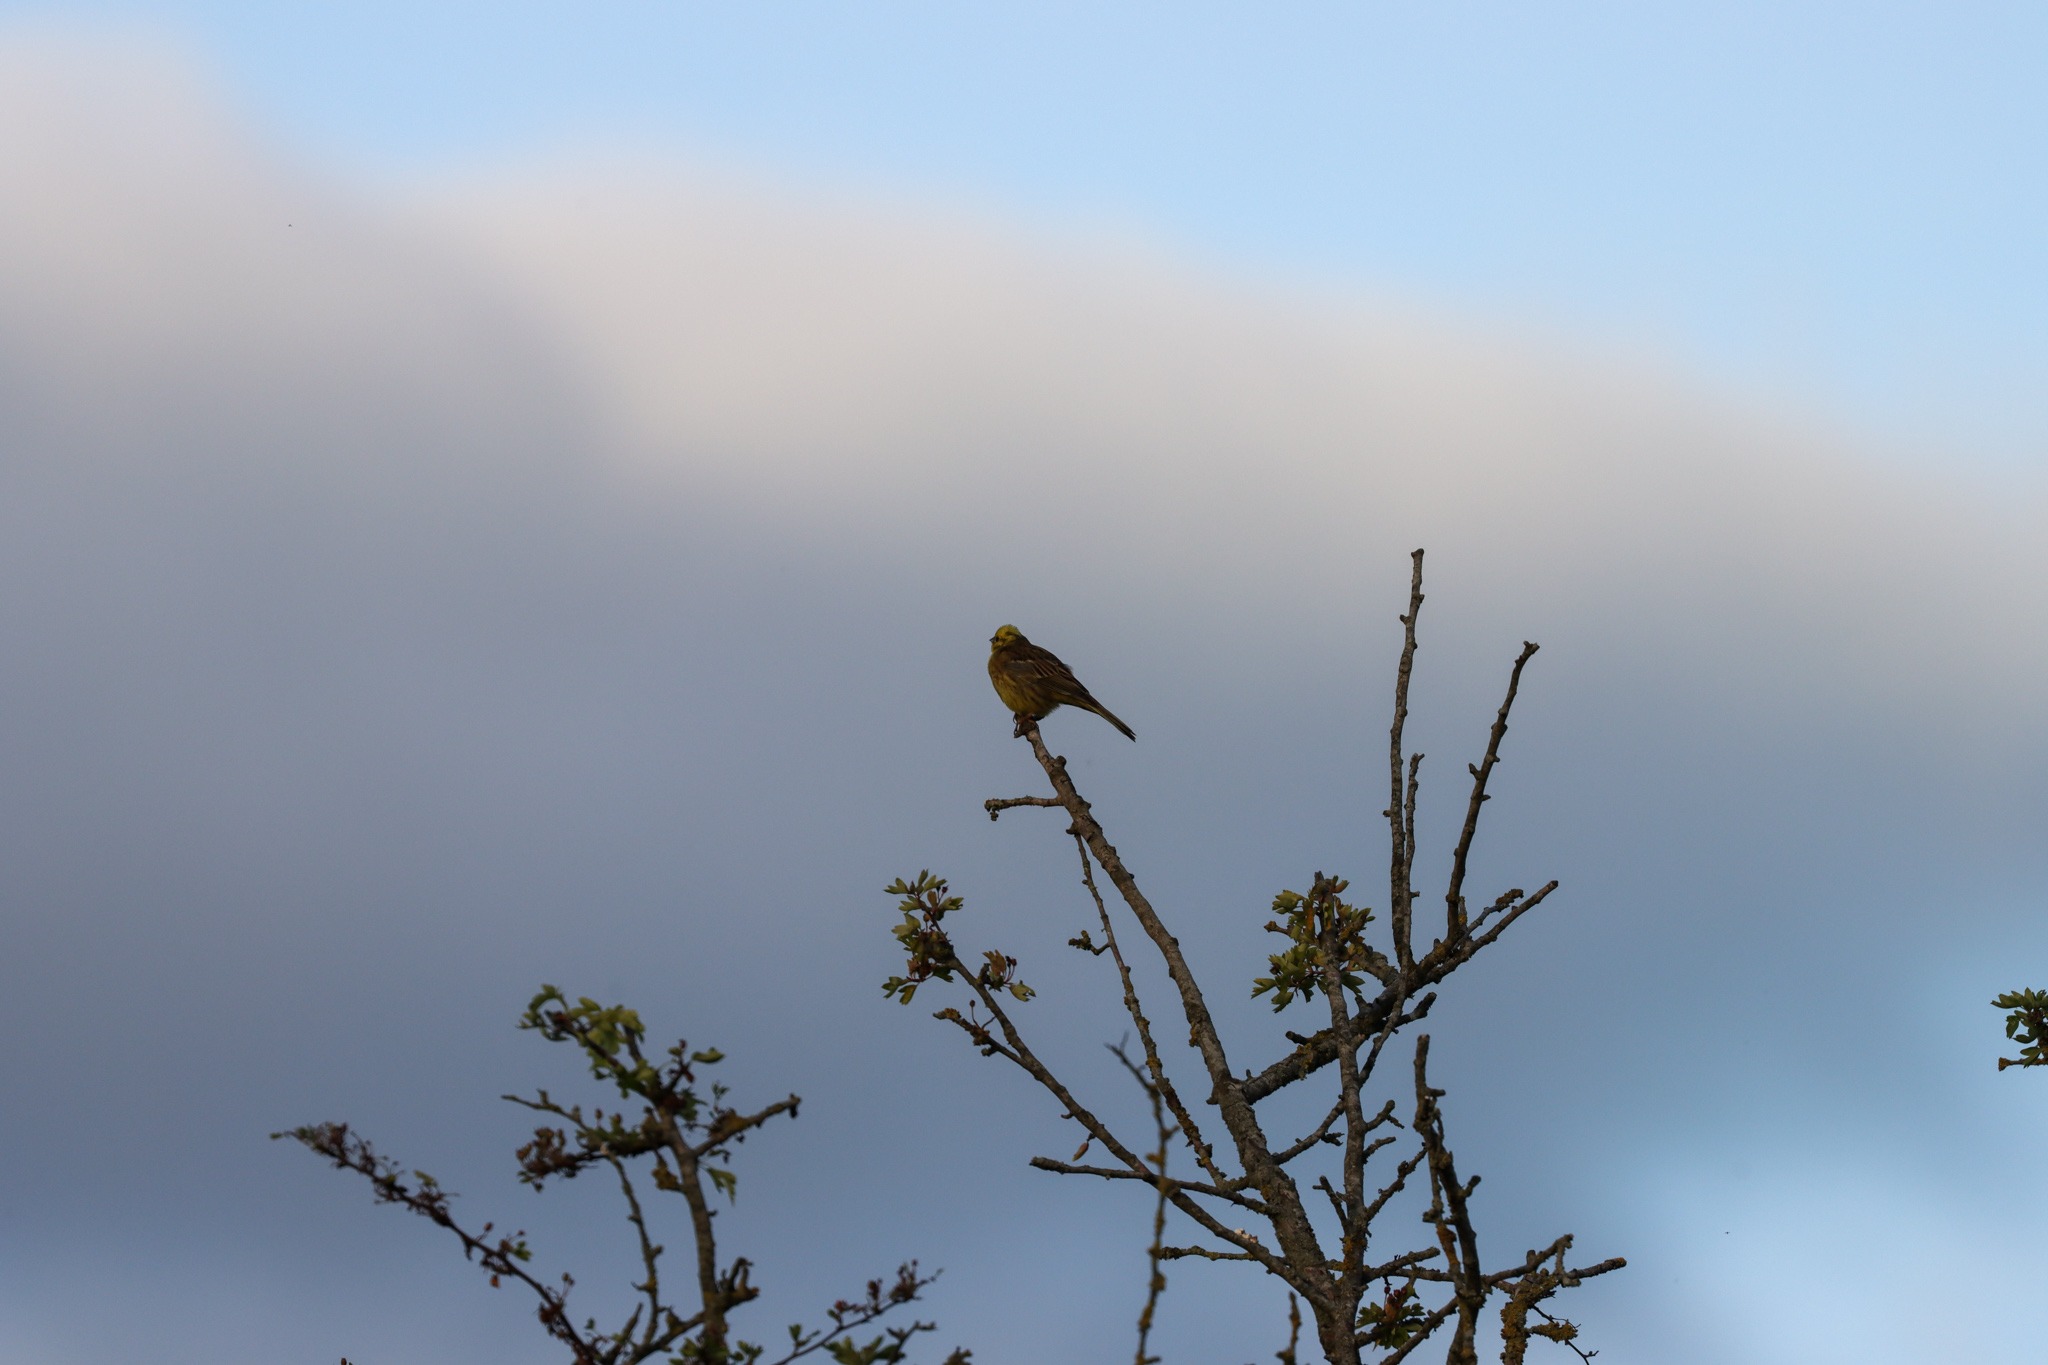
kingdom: Animalia
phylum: Chordata
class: Aves
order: Passeriformes
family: Emberizidae
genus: Emberiza
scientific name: Emberiza citrinella
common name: Gulspurv
